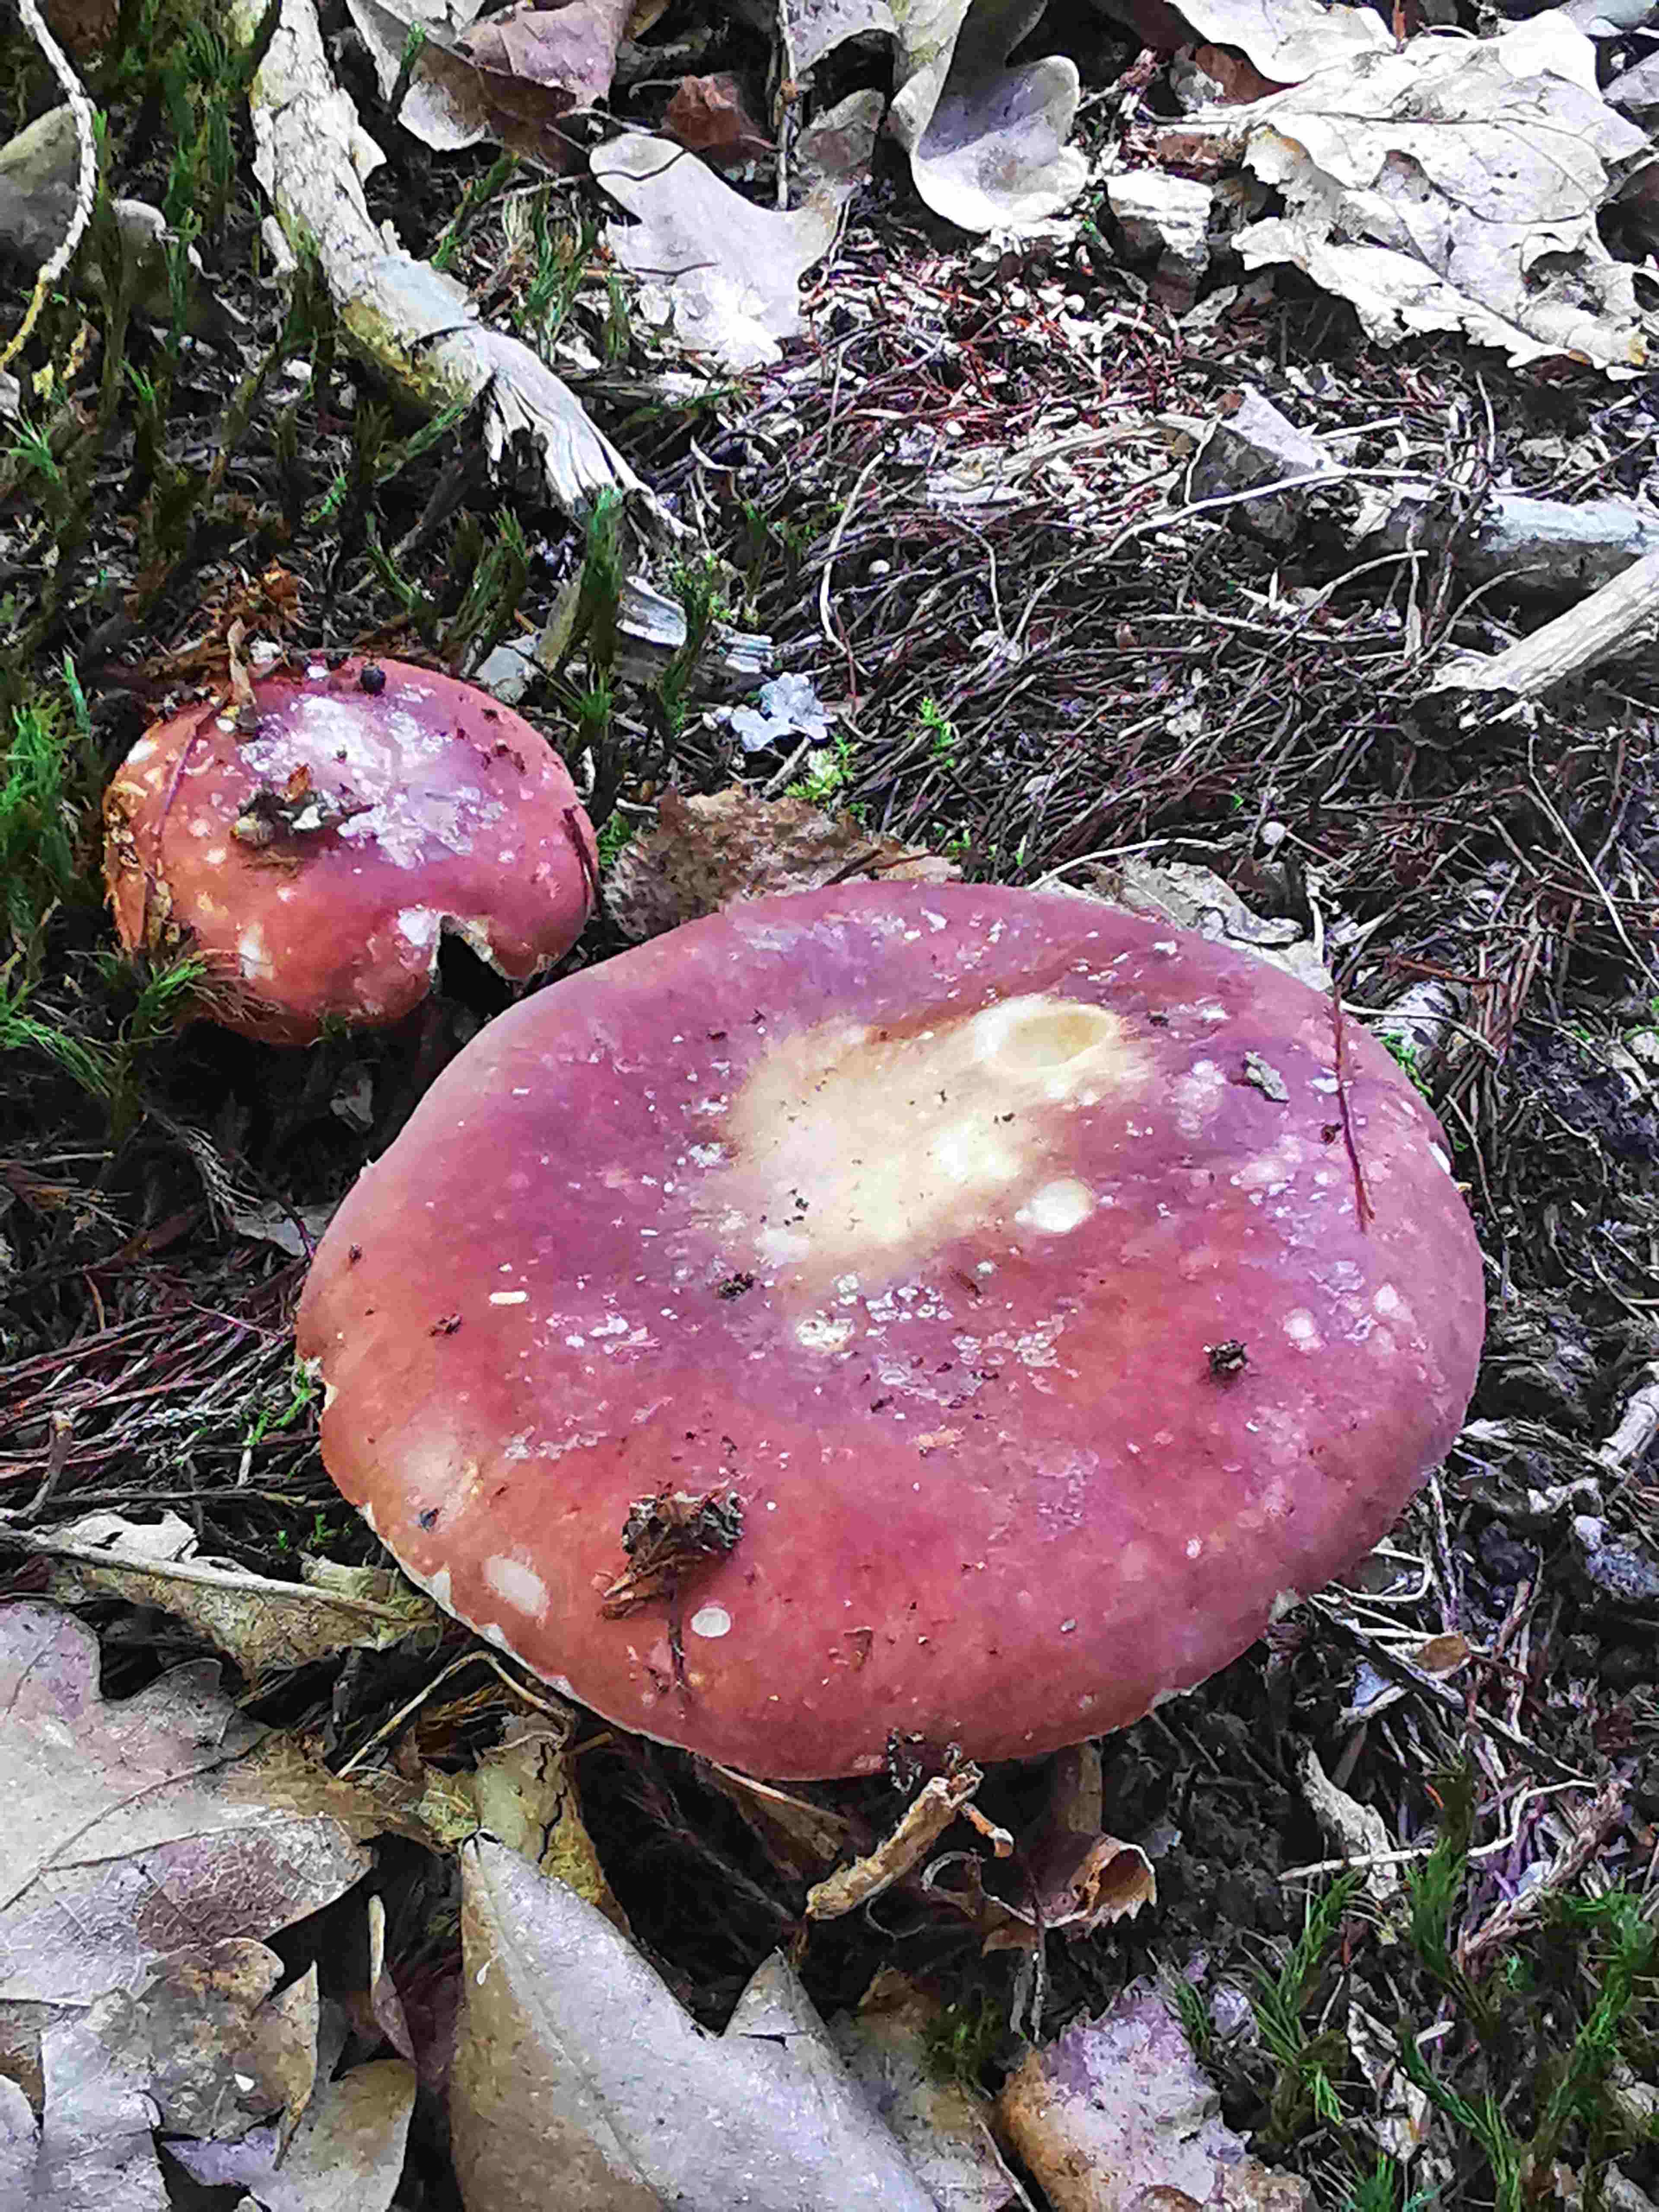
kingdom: Fungi
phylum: Basidiomycota
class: Agaricomycetes
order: Russulales
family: Russulaceae
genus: Russula
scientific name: Russula
